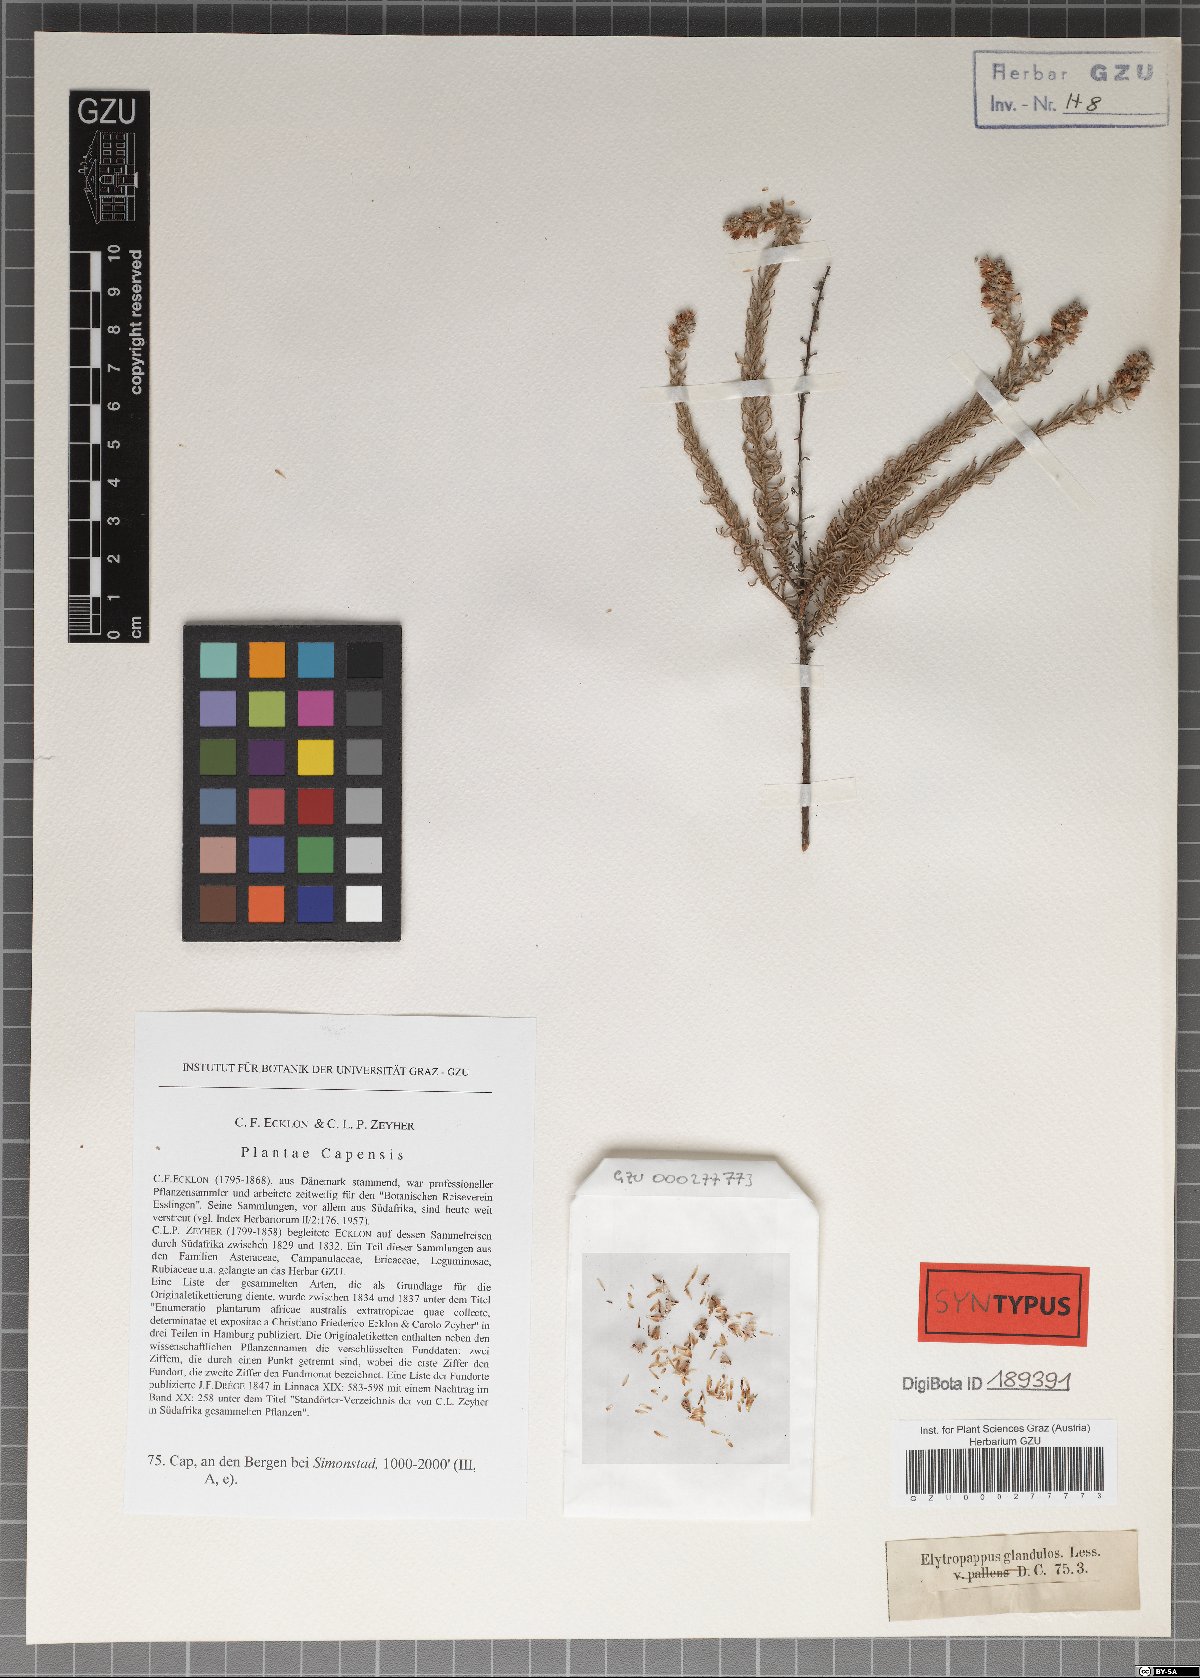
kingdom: Plantae
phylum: Tracheophyta
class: Magnoliopsida
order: Asterales
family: Asteraceae
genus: Myrovernix
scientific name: Myrovernix longifolius
